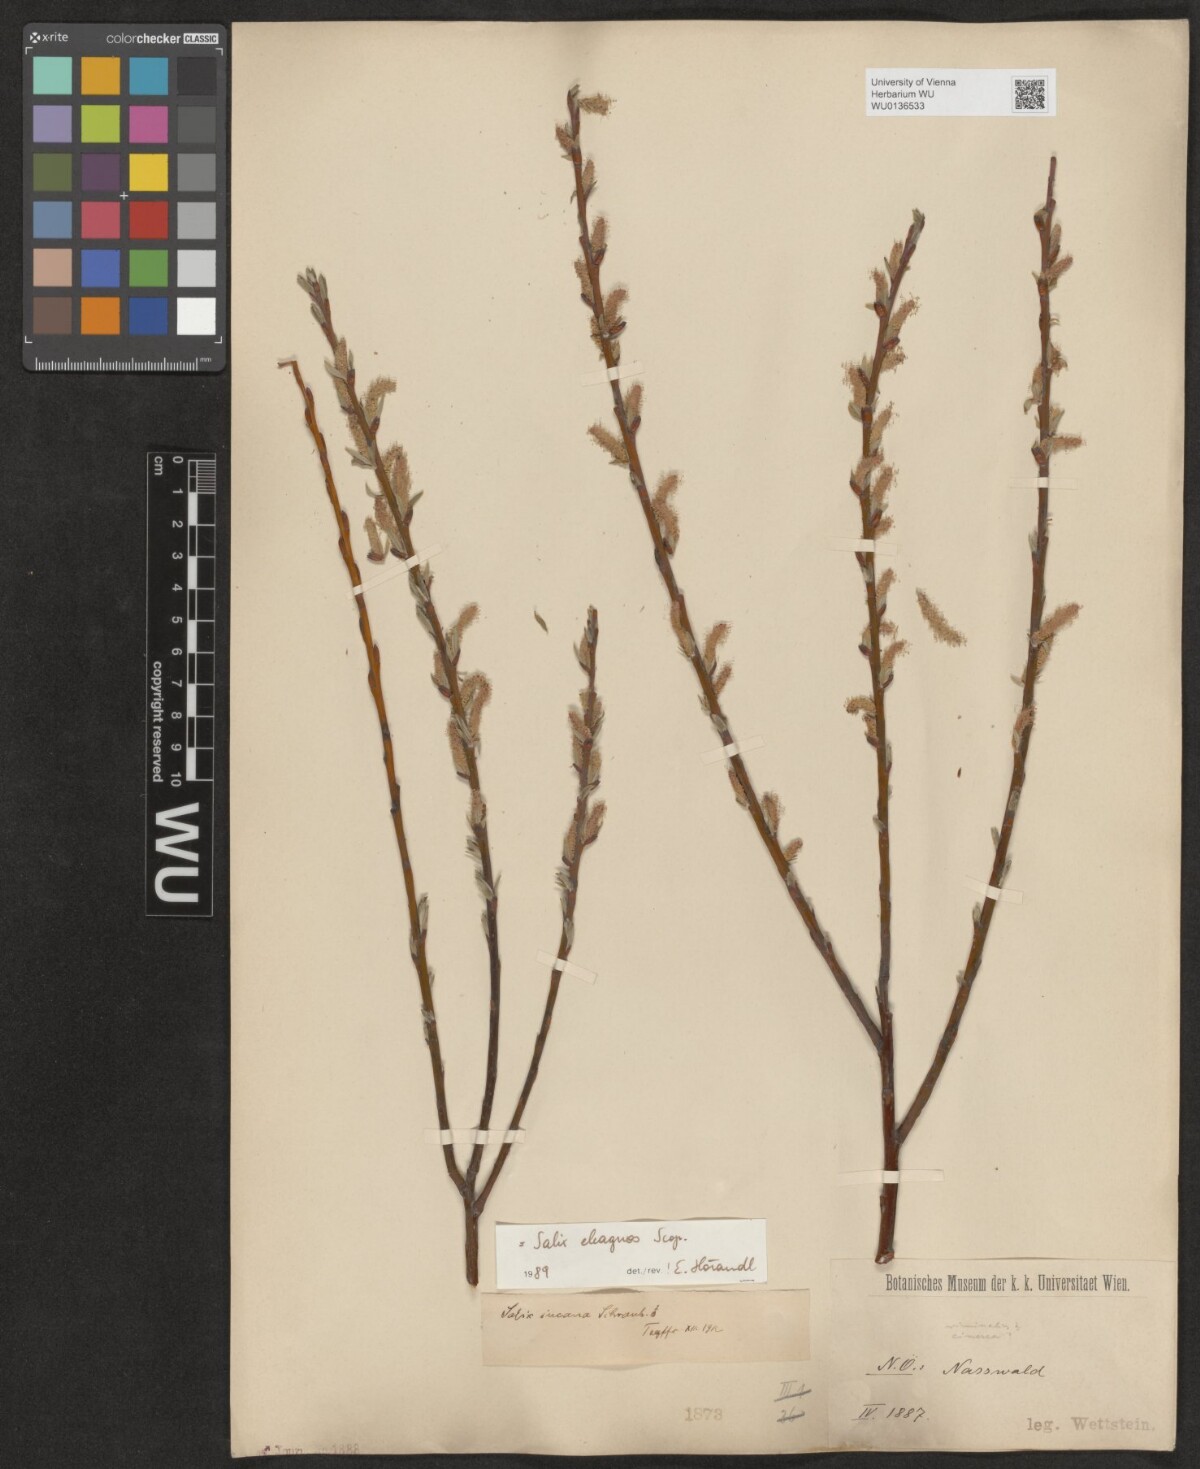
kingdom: Plantae
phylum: Tracheophyta
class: Magnoliopsida
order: Malpighiales
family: Salicaceae
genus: Salix
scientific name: Salix eleagnos
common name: Elaeagnus willow
